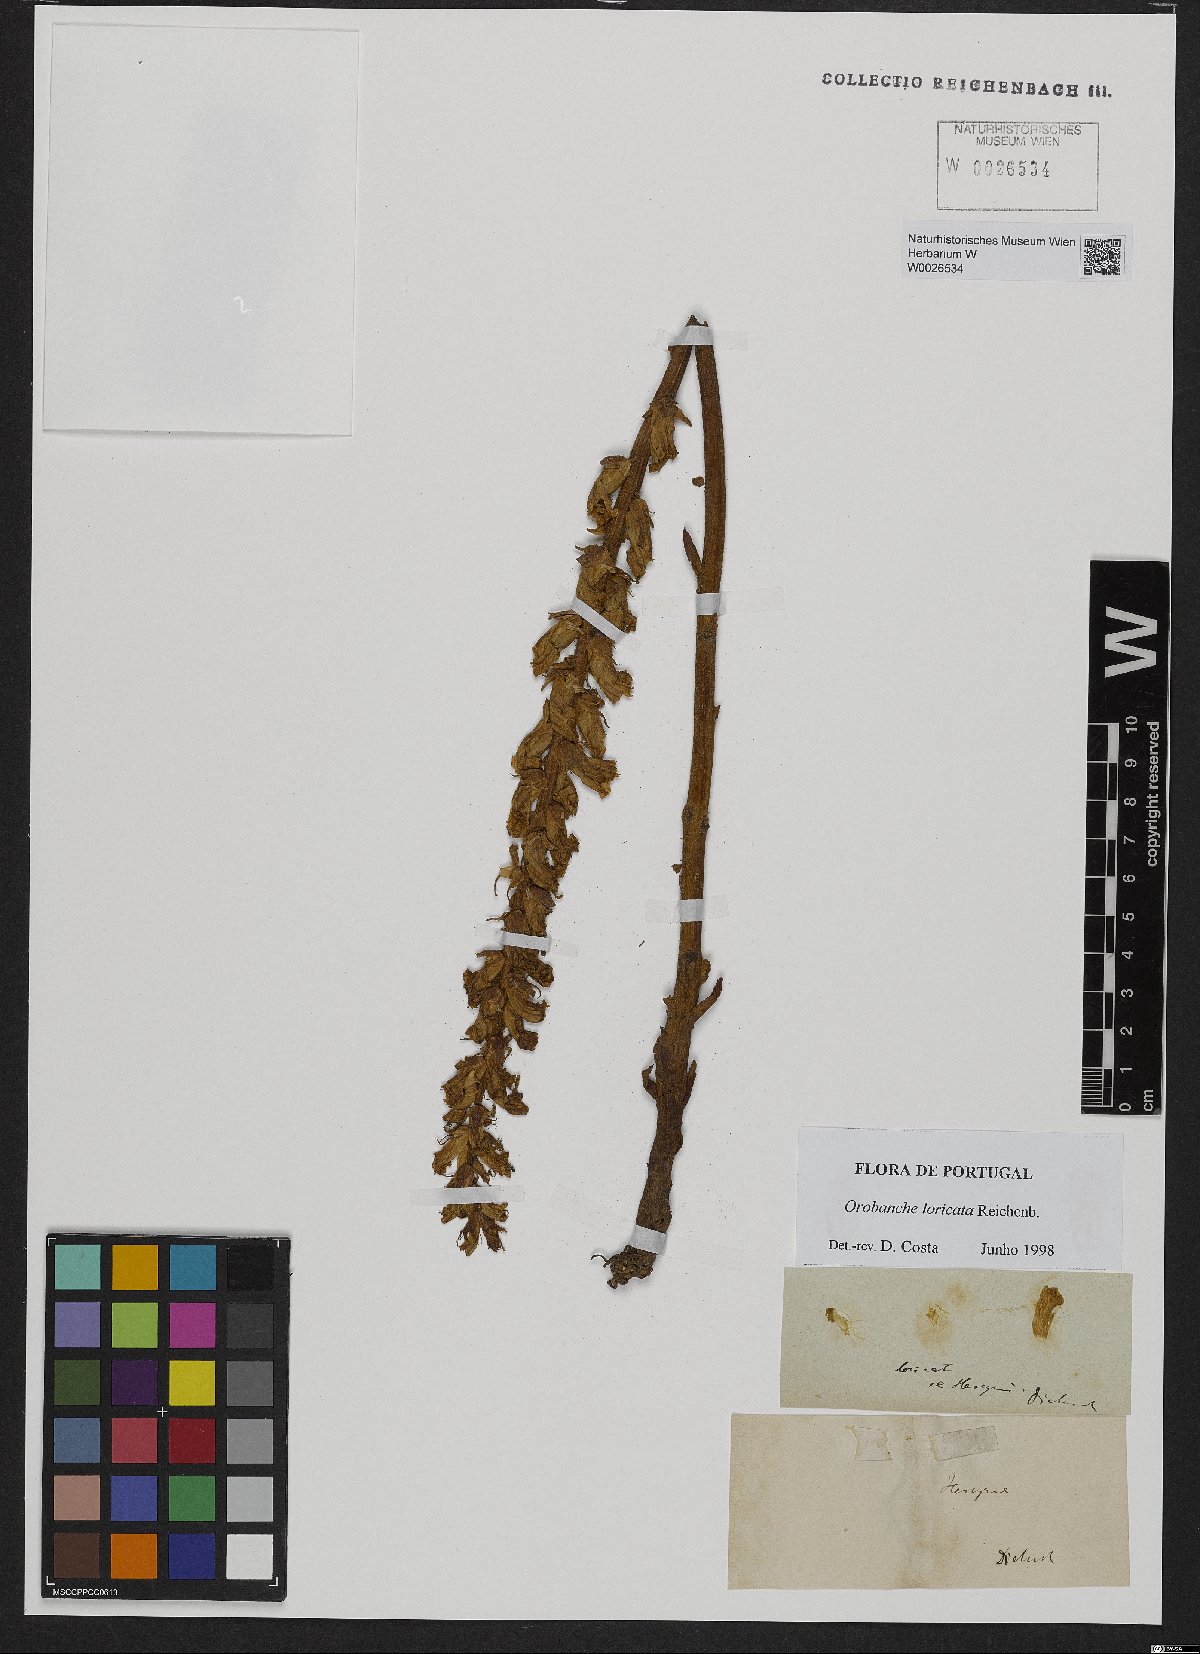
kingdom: Plantae
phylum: Tracheophyta
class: Magnoliopsida
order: Lamiales
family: Orobanchaceae
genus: Orobanche
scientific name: Orobanche artemisiae-campestris
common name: Oxtongue broomrape
